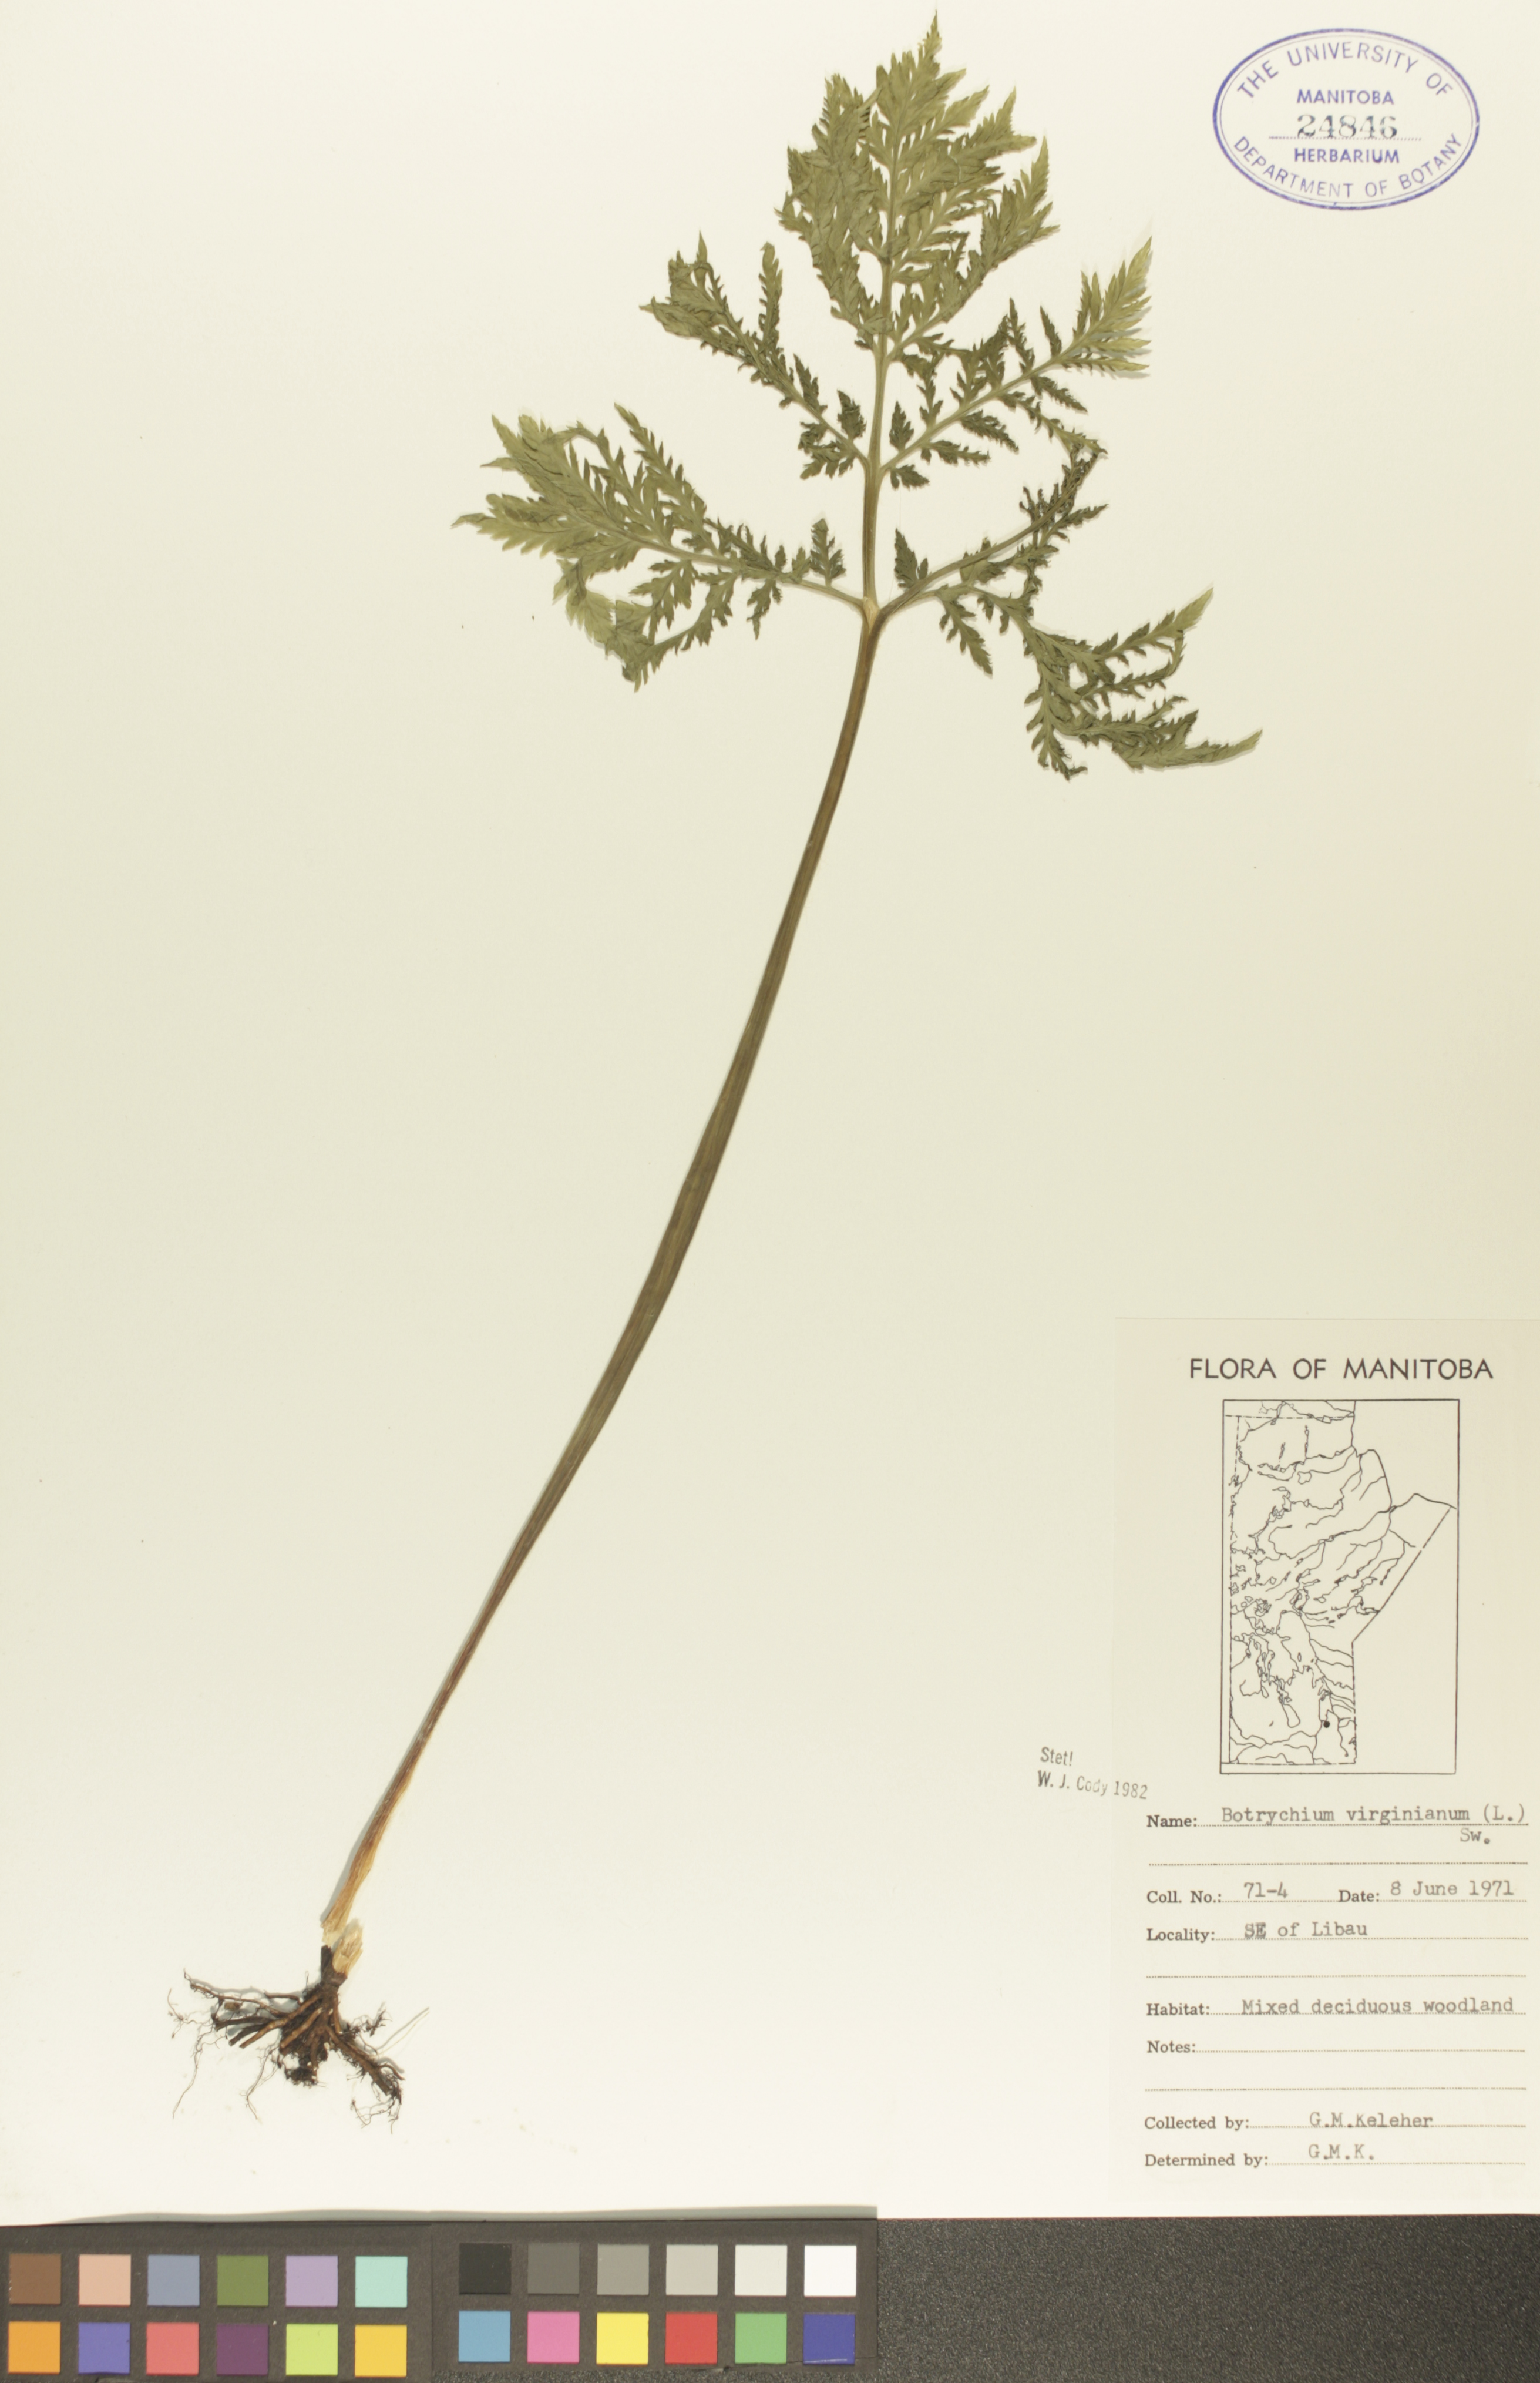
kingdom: Plantae
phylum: Tracheophyta
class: Polypodiopsida
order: Ophioglossales
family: Ophioglossaceae
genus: Botrypus
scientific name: Botrypus virginianus
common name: Common grapefern
